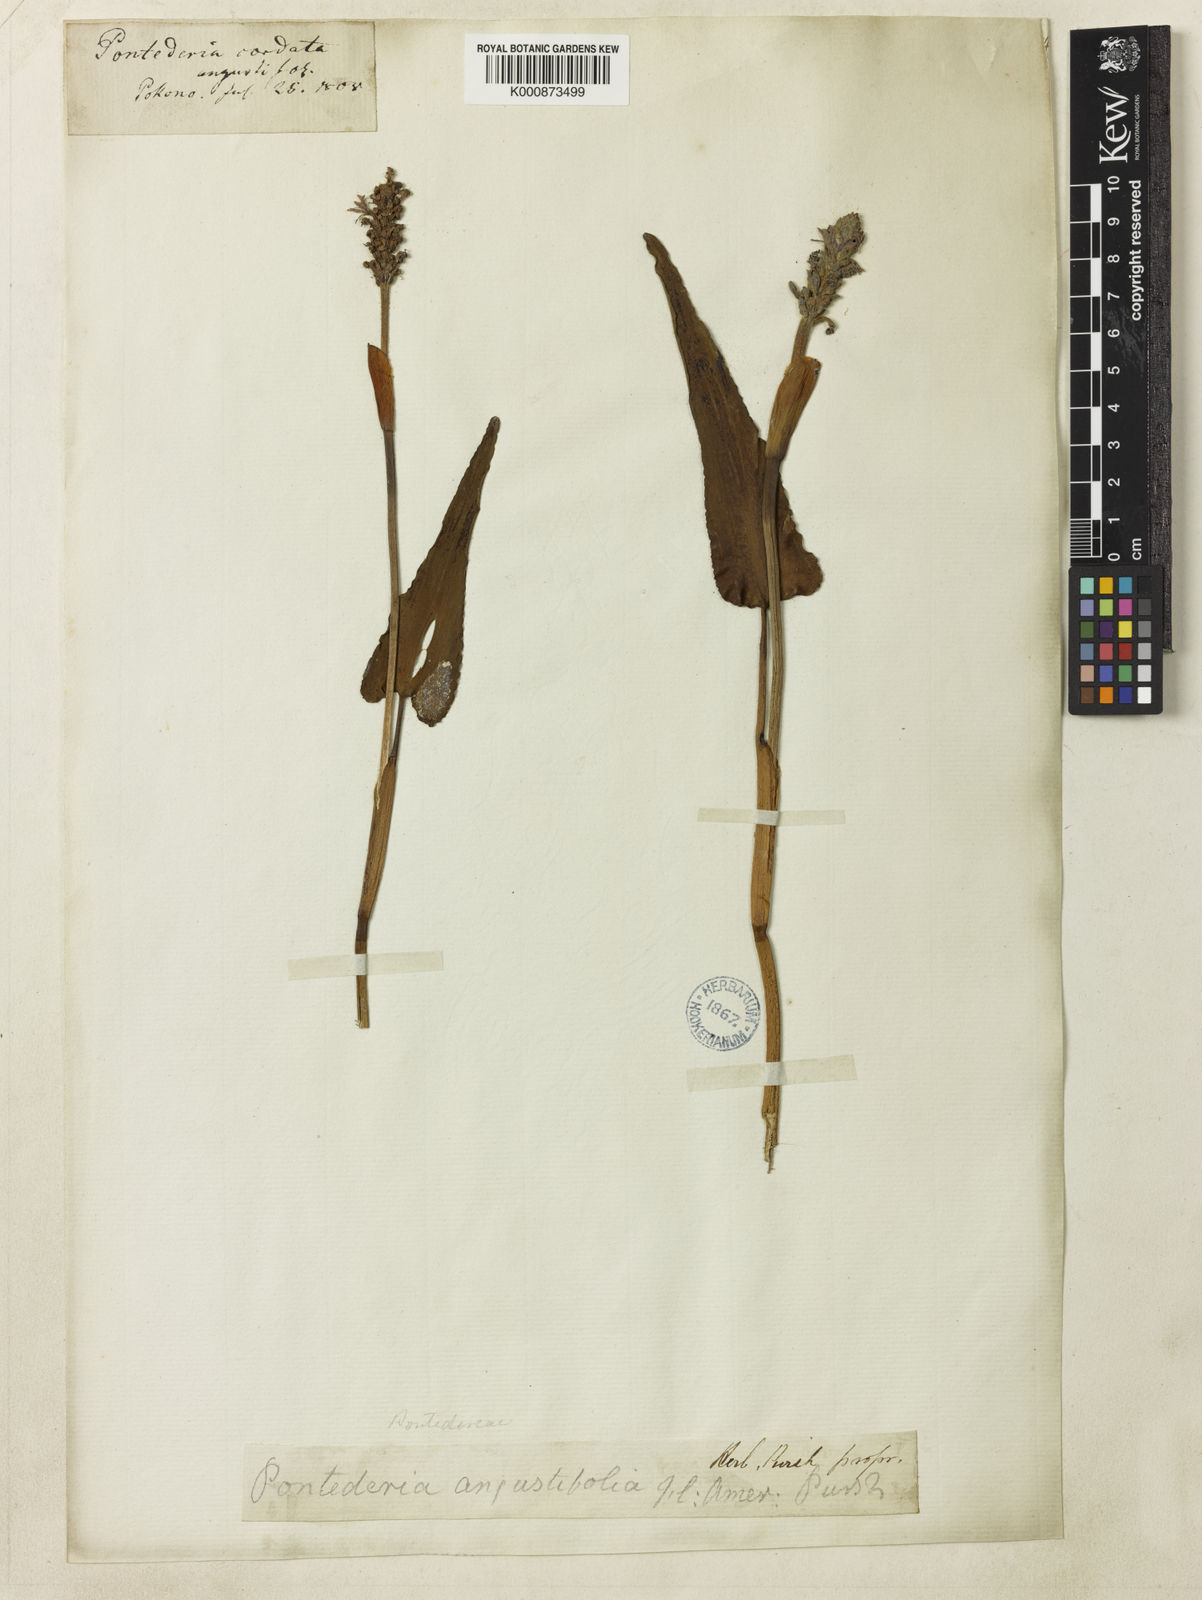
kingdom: Plantae
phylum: Tracheophyta
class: Liliopsida
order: Commelinales
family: Pontederiaceae
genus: Pontederia
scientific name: Pontederia cordata
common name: Pickerelweed
